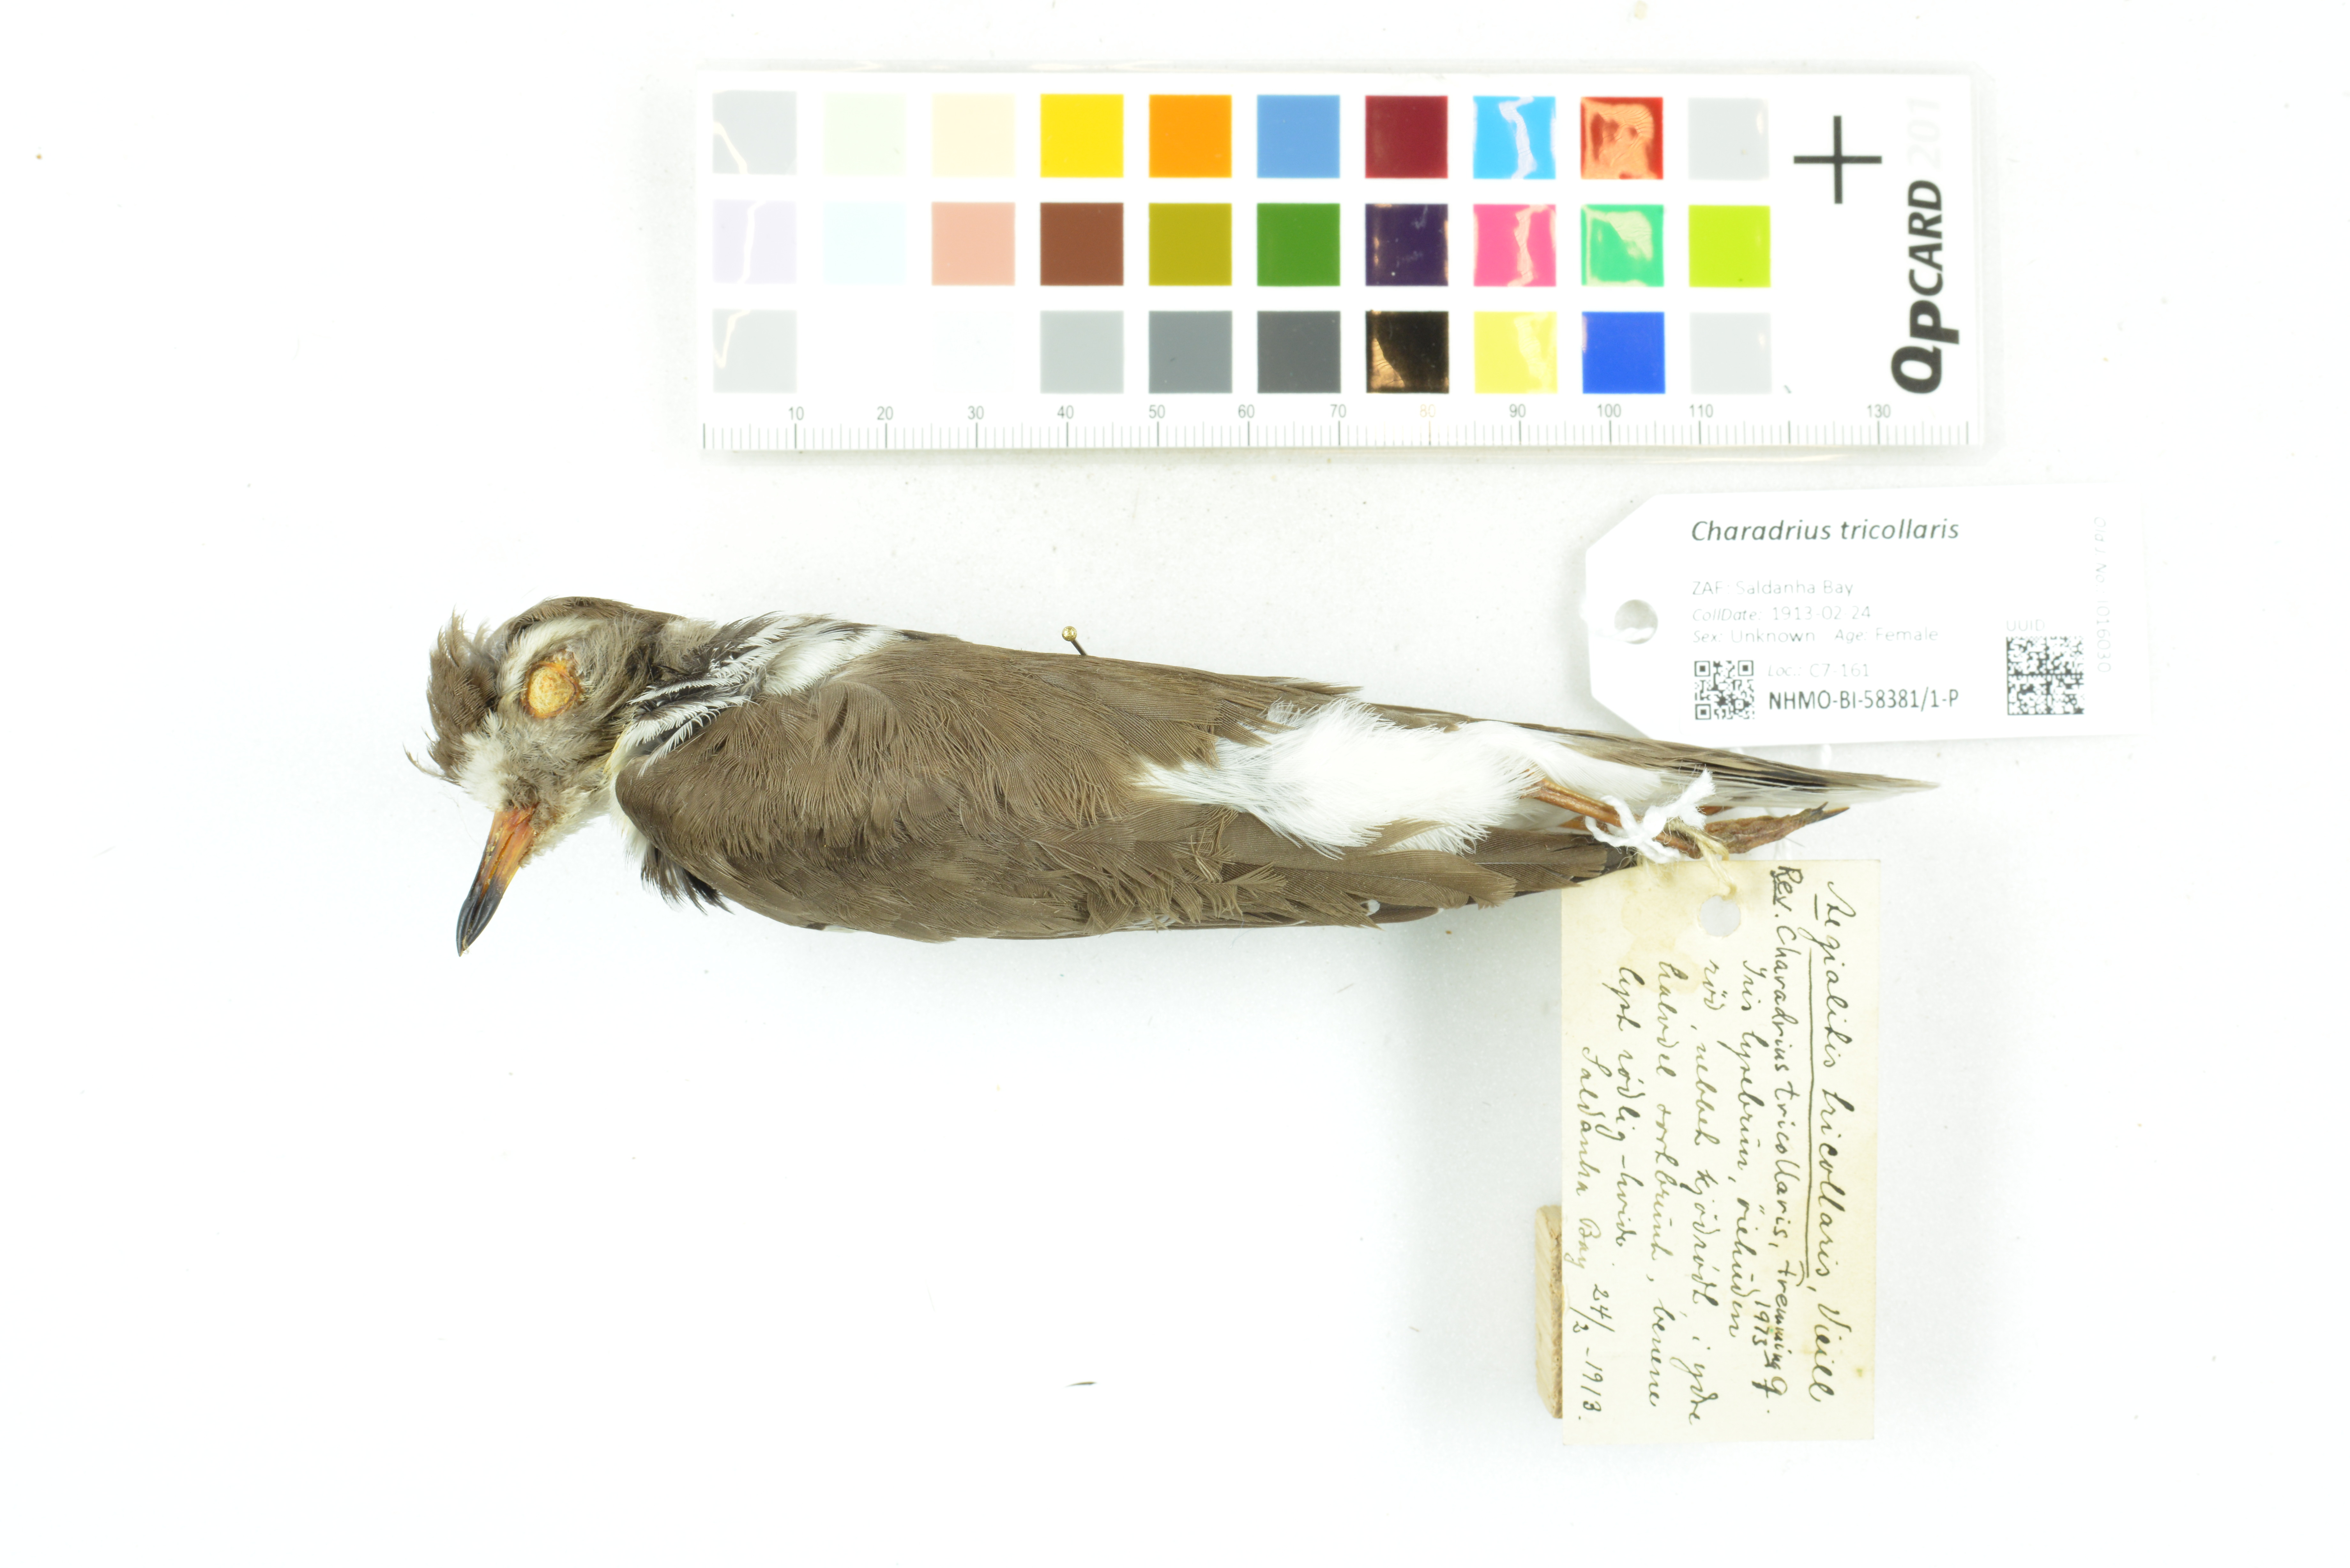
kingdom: Animalia
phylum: Chordata
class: Aves
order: Charadriiformes
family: Charadriidae
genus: Charadrius
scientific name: Charadrius tricollaris
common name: Three-banded plover
